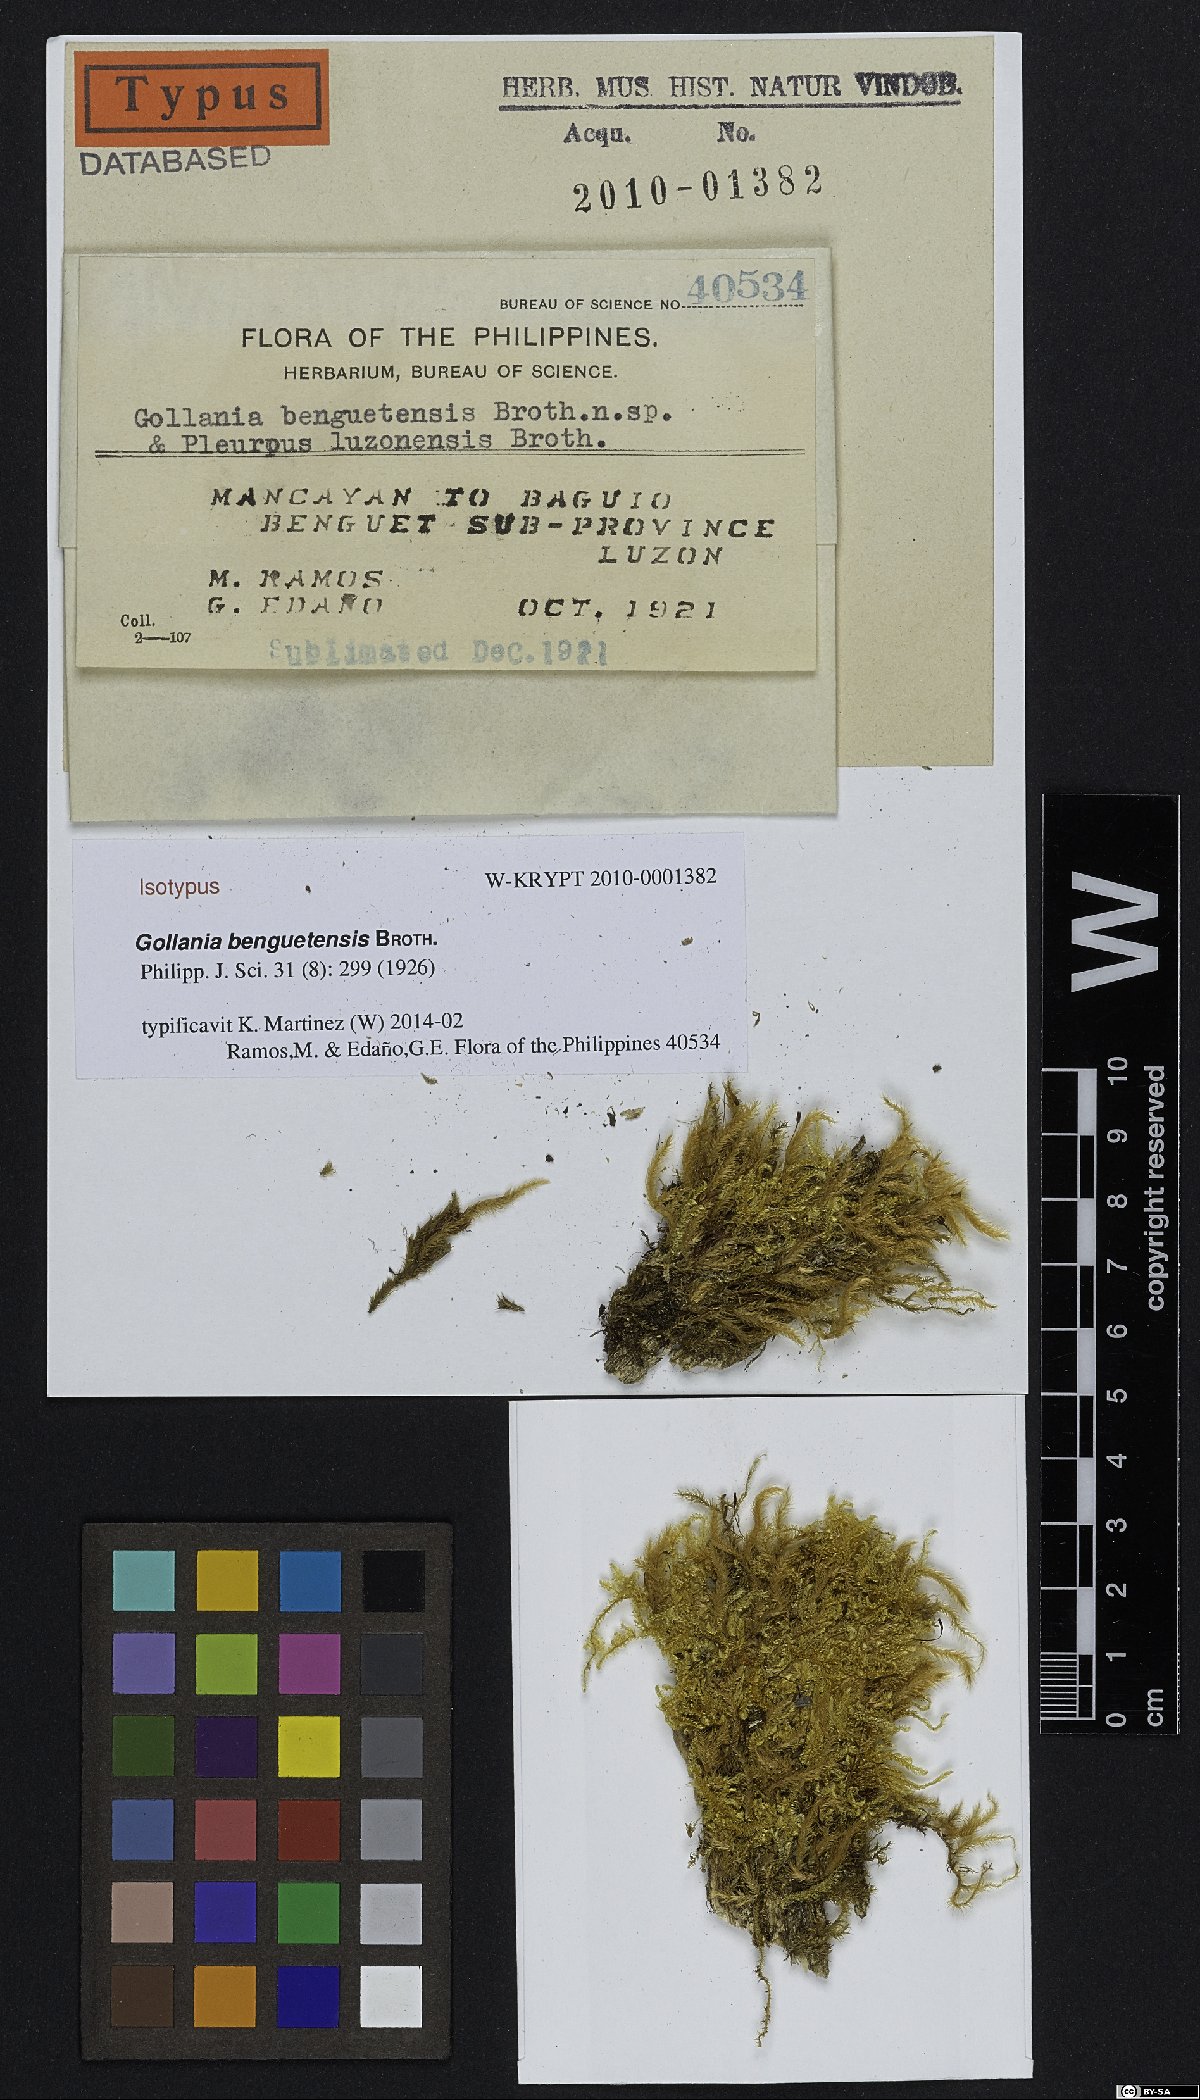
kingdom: Plantae
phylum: Bryophyta
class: Bryopsida
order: Hypnales
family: Hypnaceae
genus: Gollania
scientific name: Gollania benguetensis
